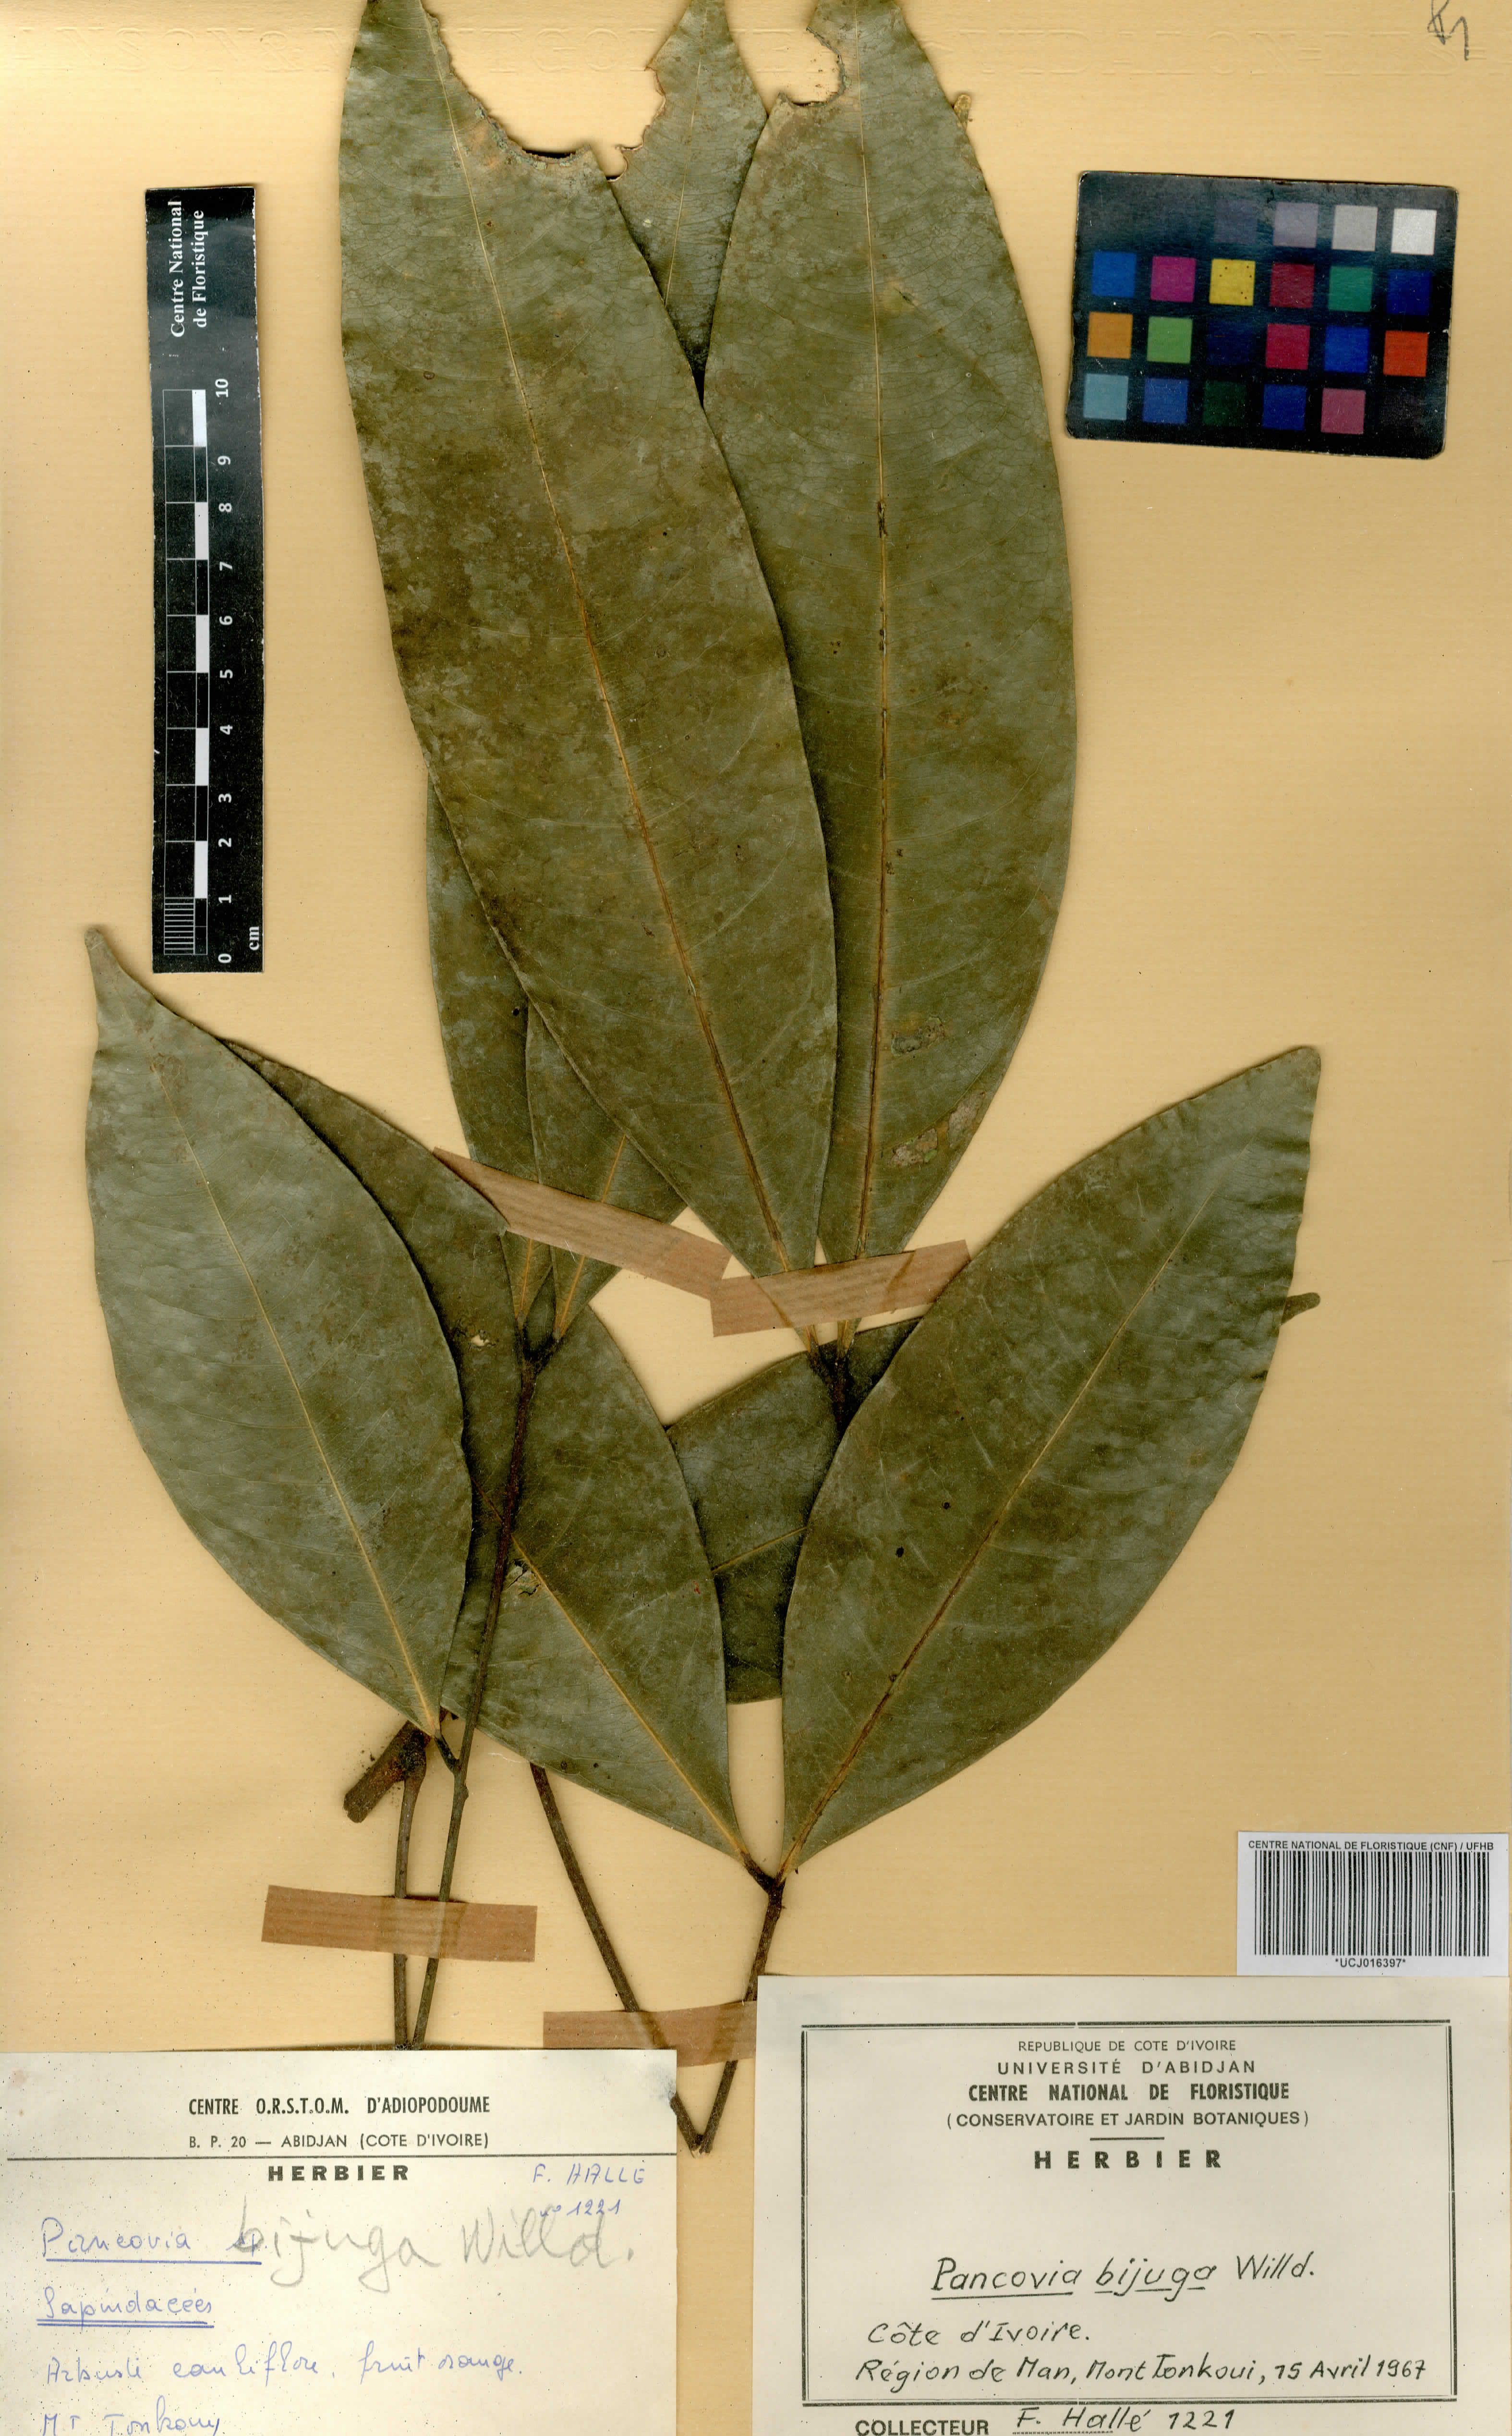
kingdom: Plantae
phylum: Tracheophyta
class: Magnoliopsida
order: Sapindales
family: Sapindaceae
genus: Pancovia
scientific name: Pancovia bijuga
